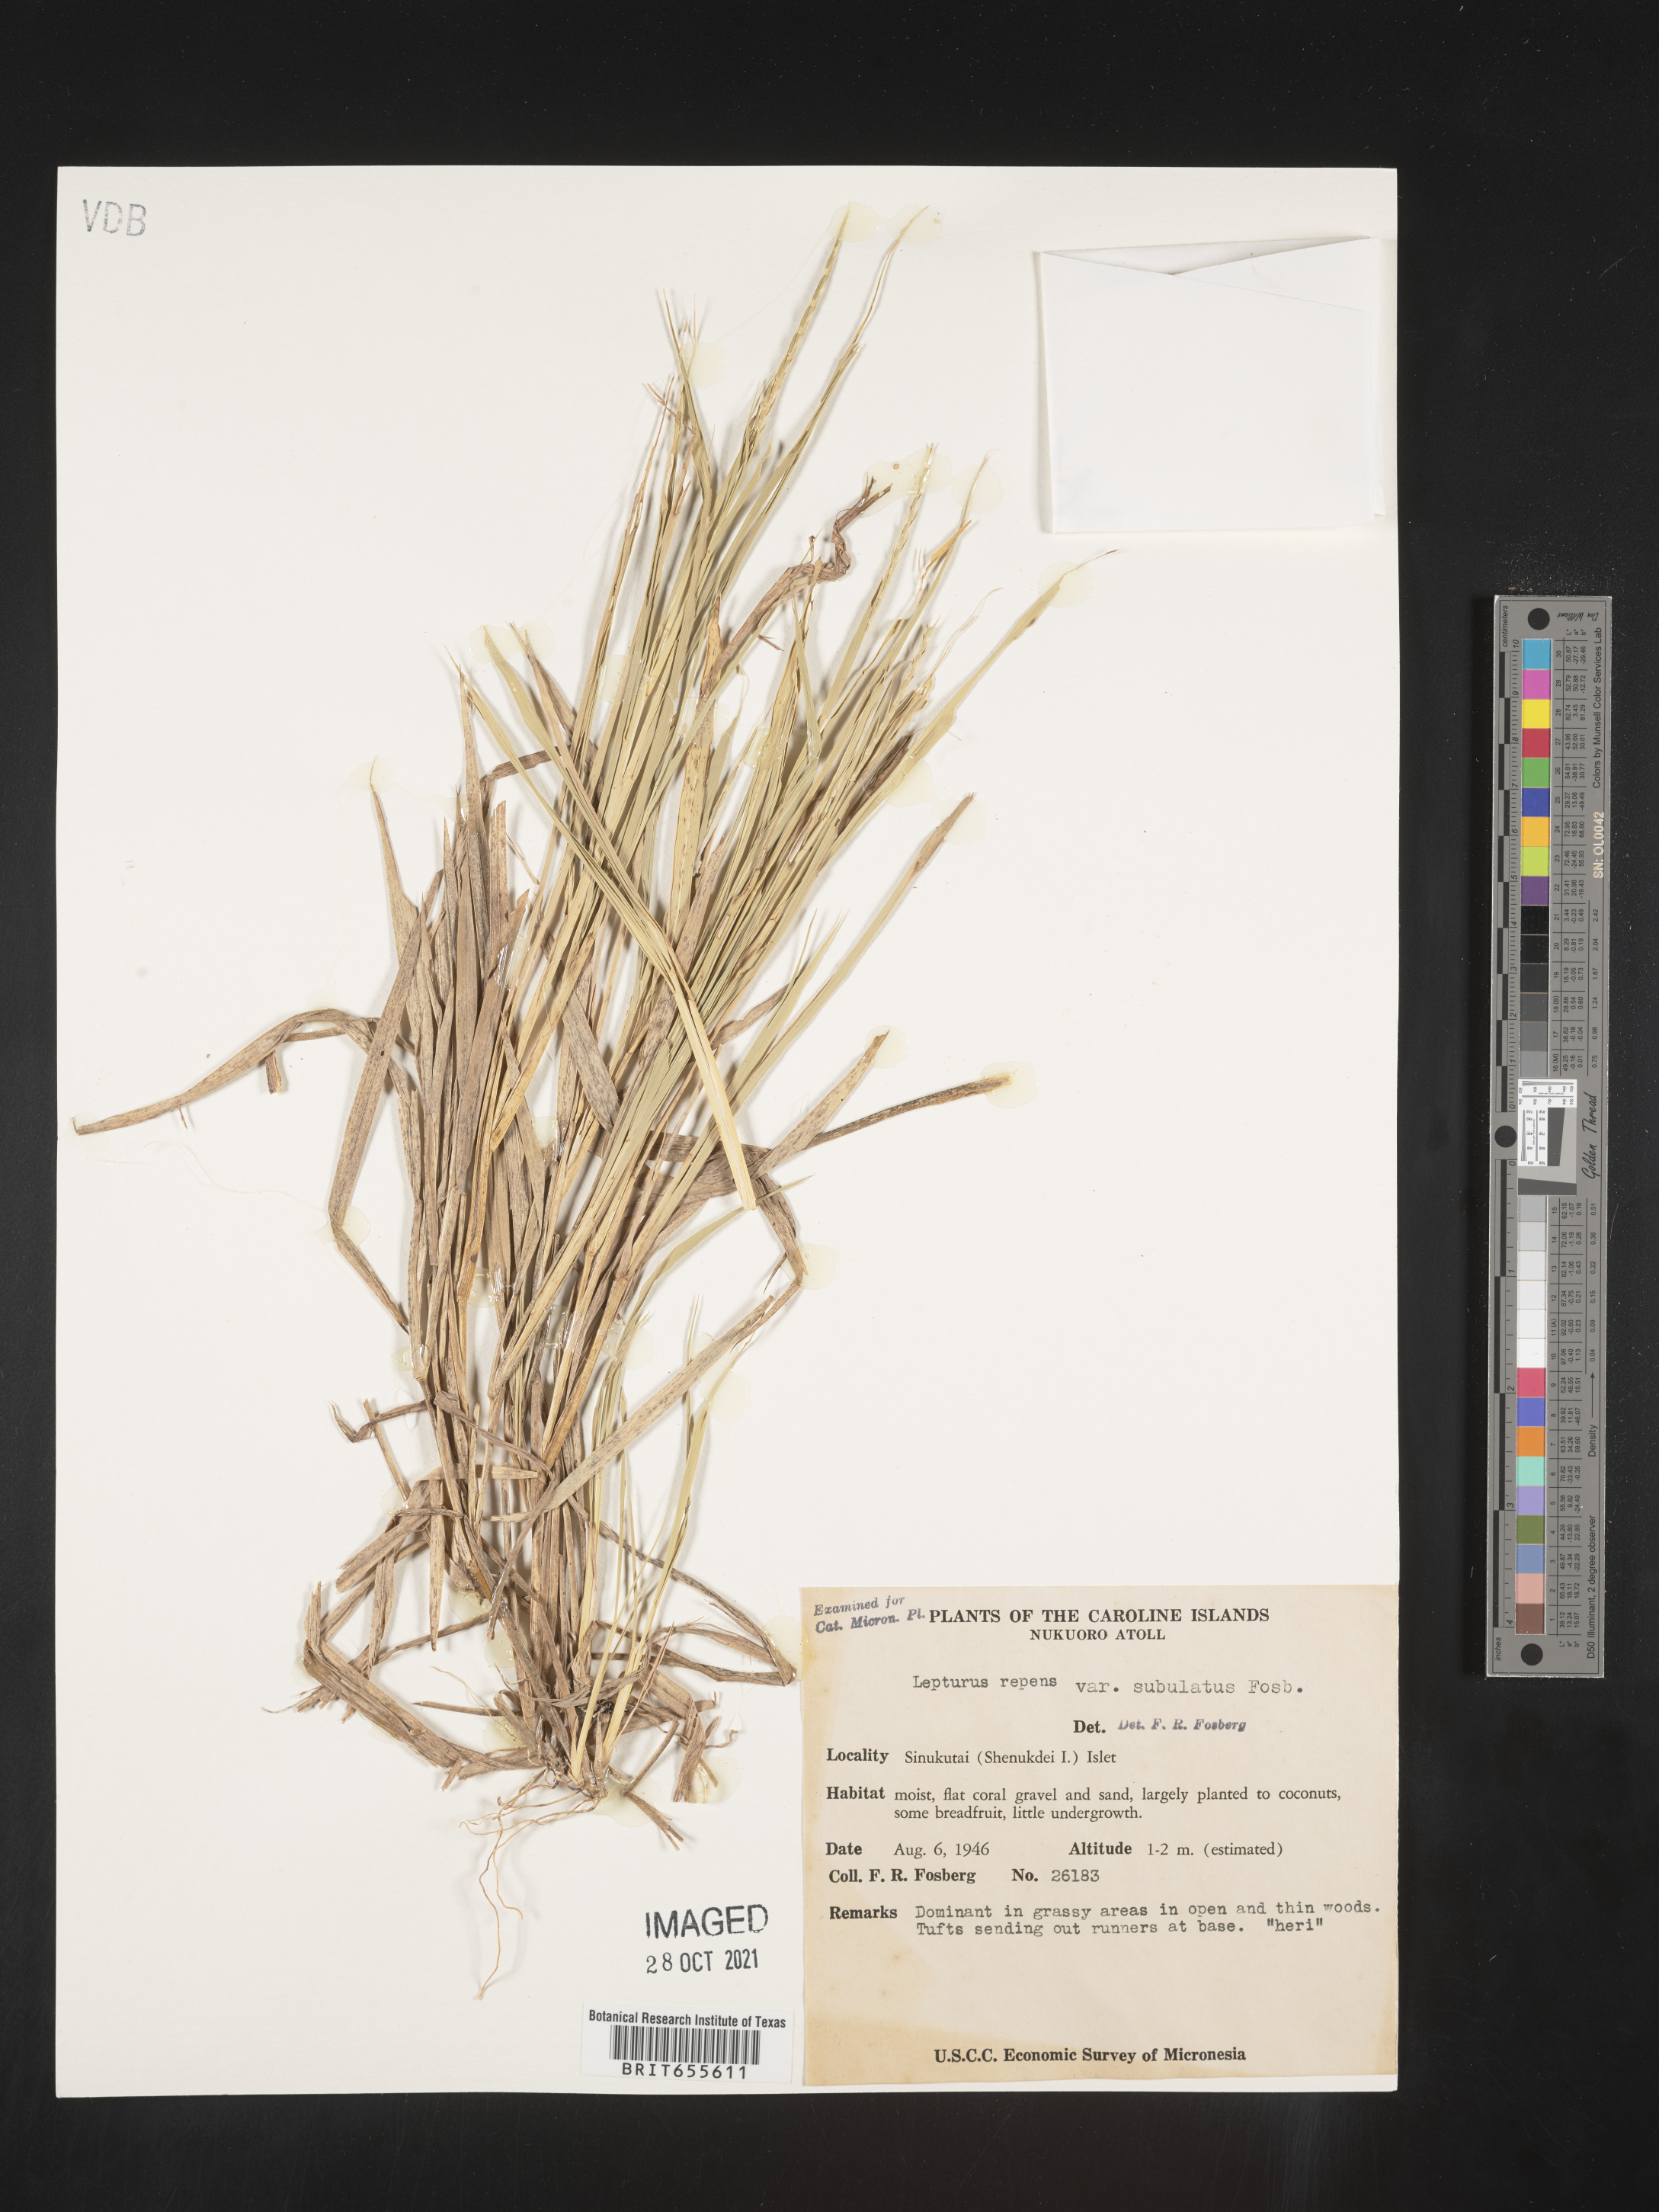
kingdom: Plantae
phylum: Tracheophyta
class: Liliopsida
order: Poales
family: Poaceae
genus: Lepturus
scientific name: Lepturus
